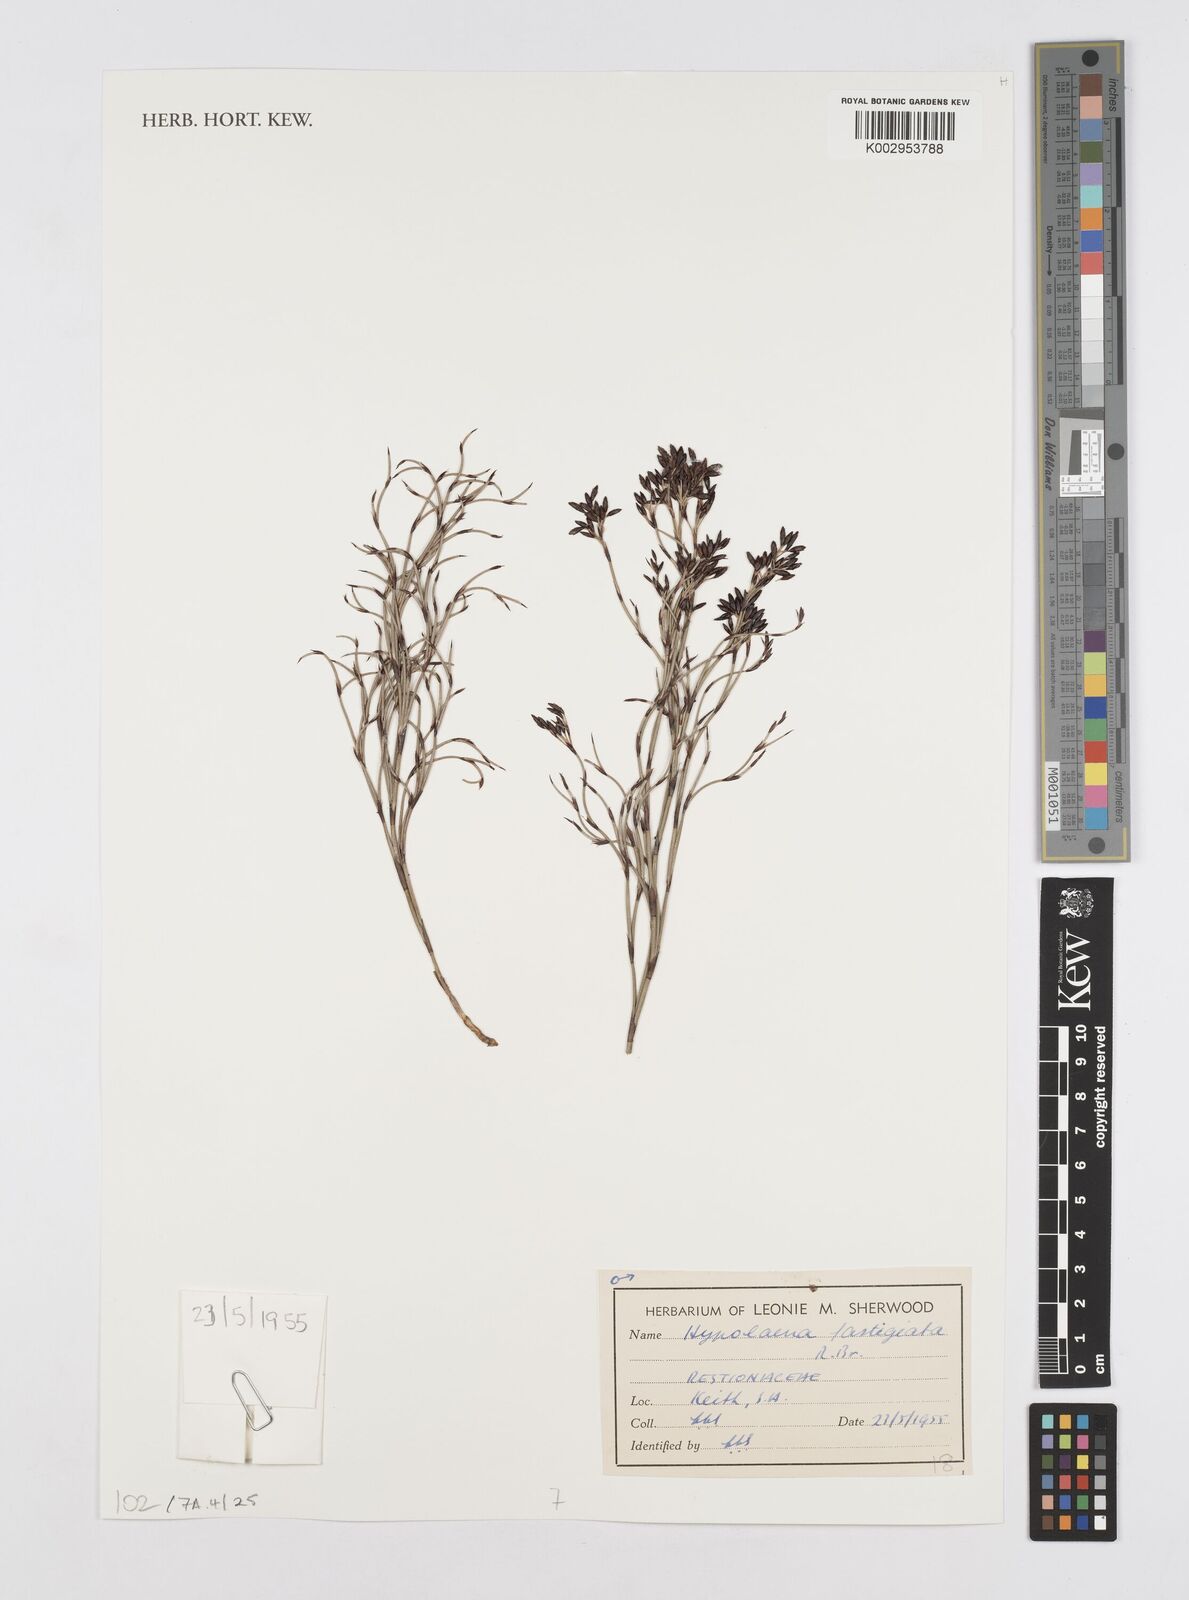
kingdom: Plantae
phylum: Tracheophyta
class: Liliopsida
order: Poales
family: Restionaceae
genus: Hypolaena
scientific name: Hypolaena fastigiata
